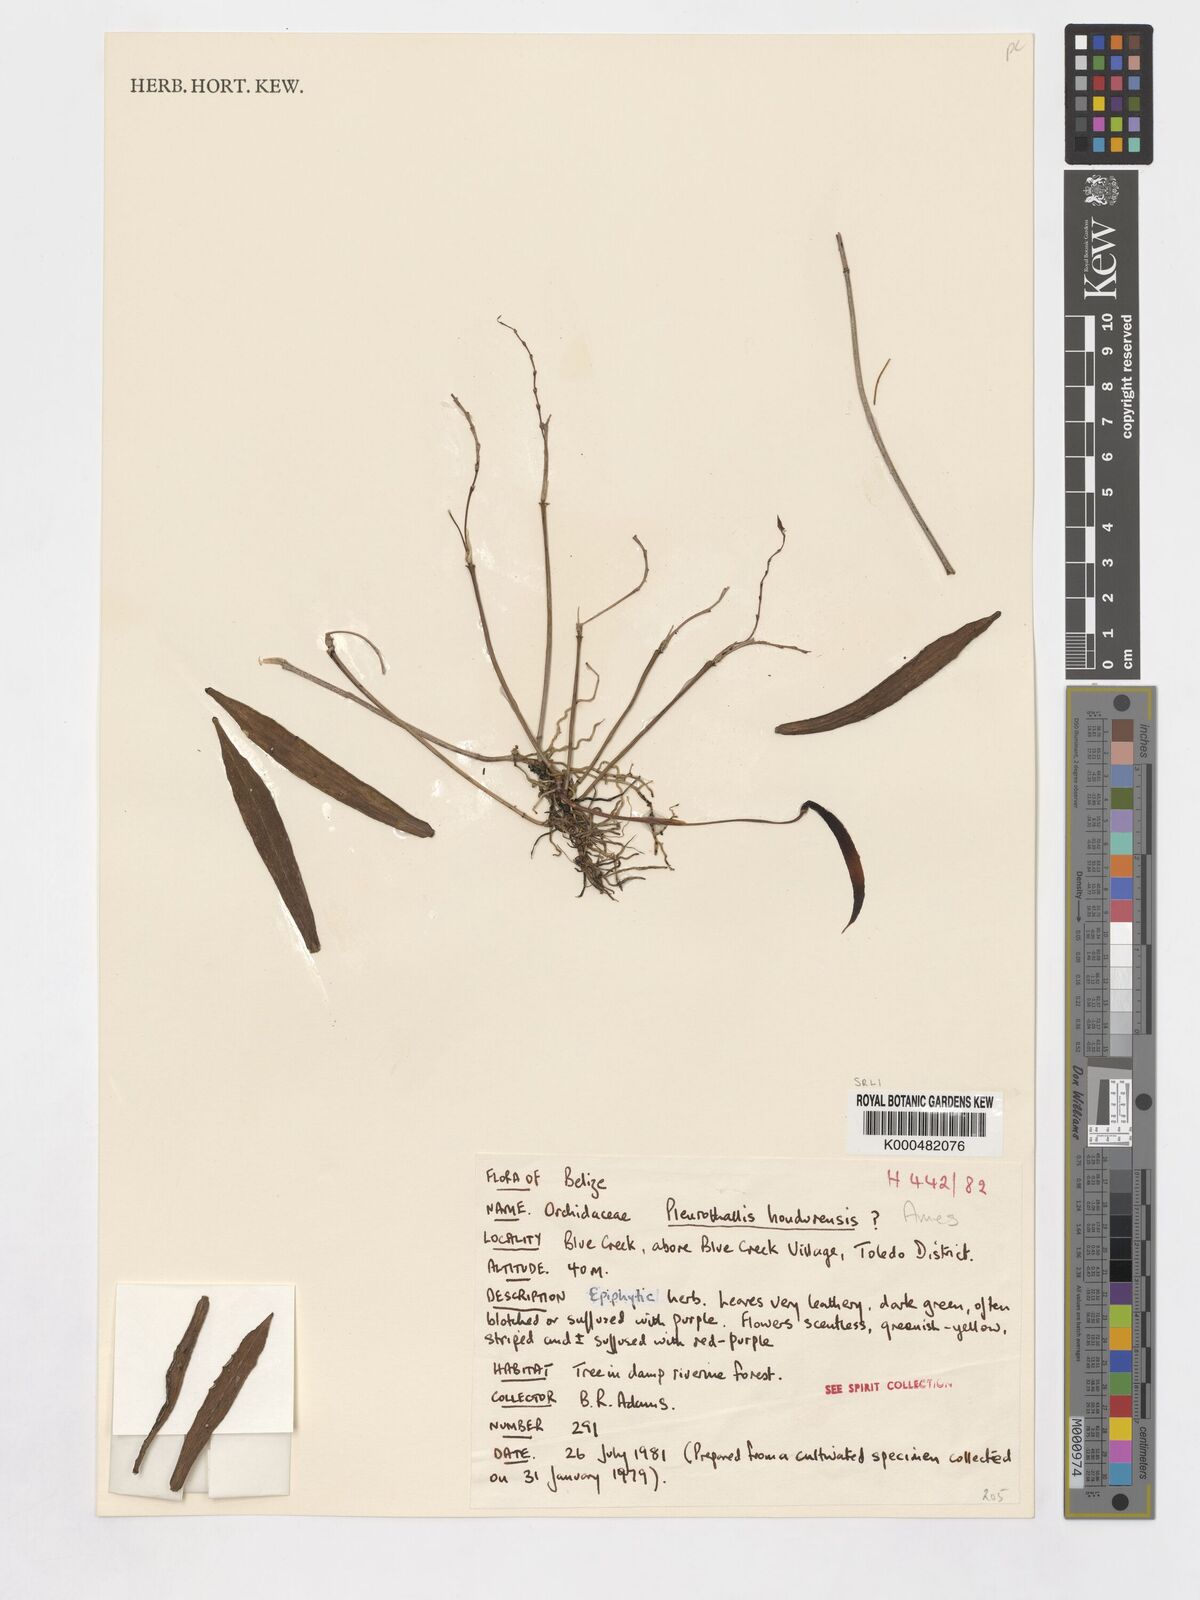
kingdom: Plantae
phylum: Tracheophyta
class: Liliopsida
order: Asparagales
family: Orchidaceae
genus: Acianthera
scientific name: Acianthera hondurensis
